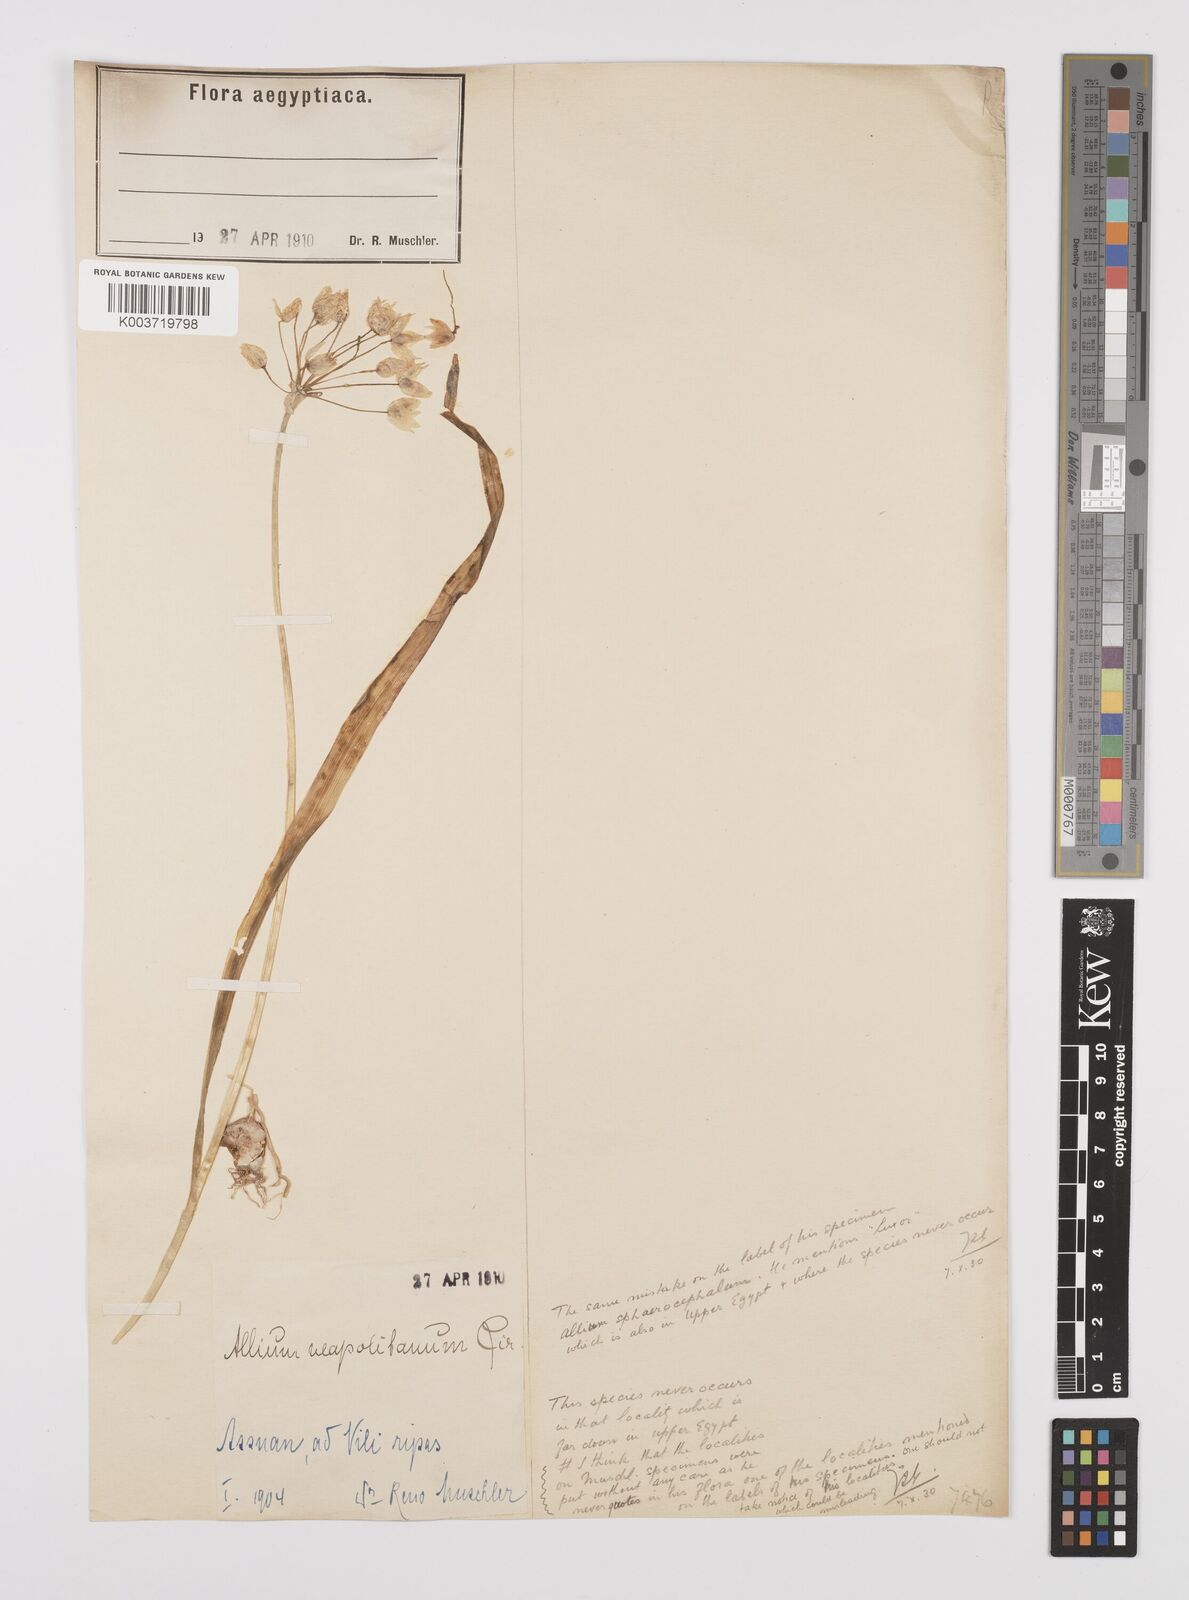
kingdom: Plantae
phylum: Tracheophyta
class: Liliopsida
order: Asparagales
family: Amaryllidaceae
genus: Allium
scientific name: Allium neapolitanum
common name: Neapolitan garlic
